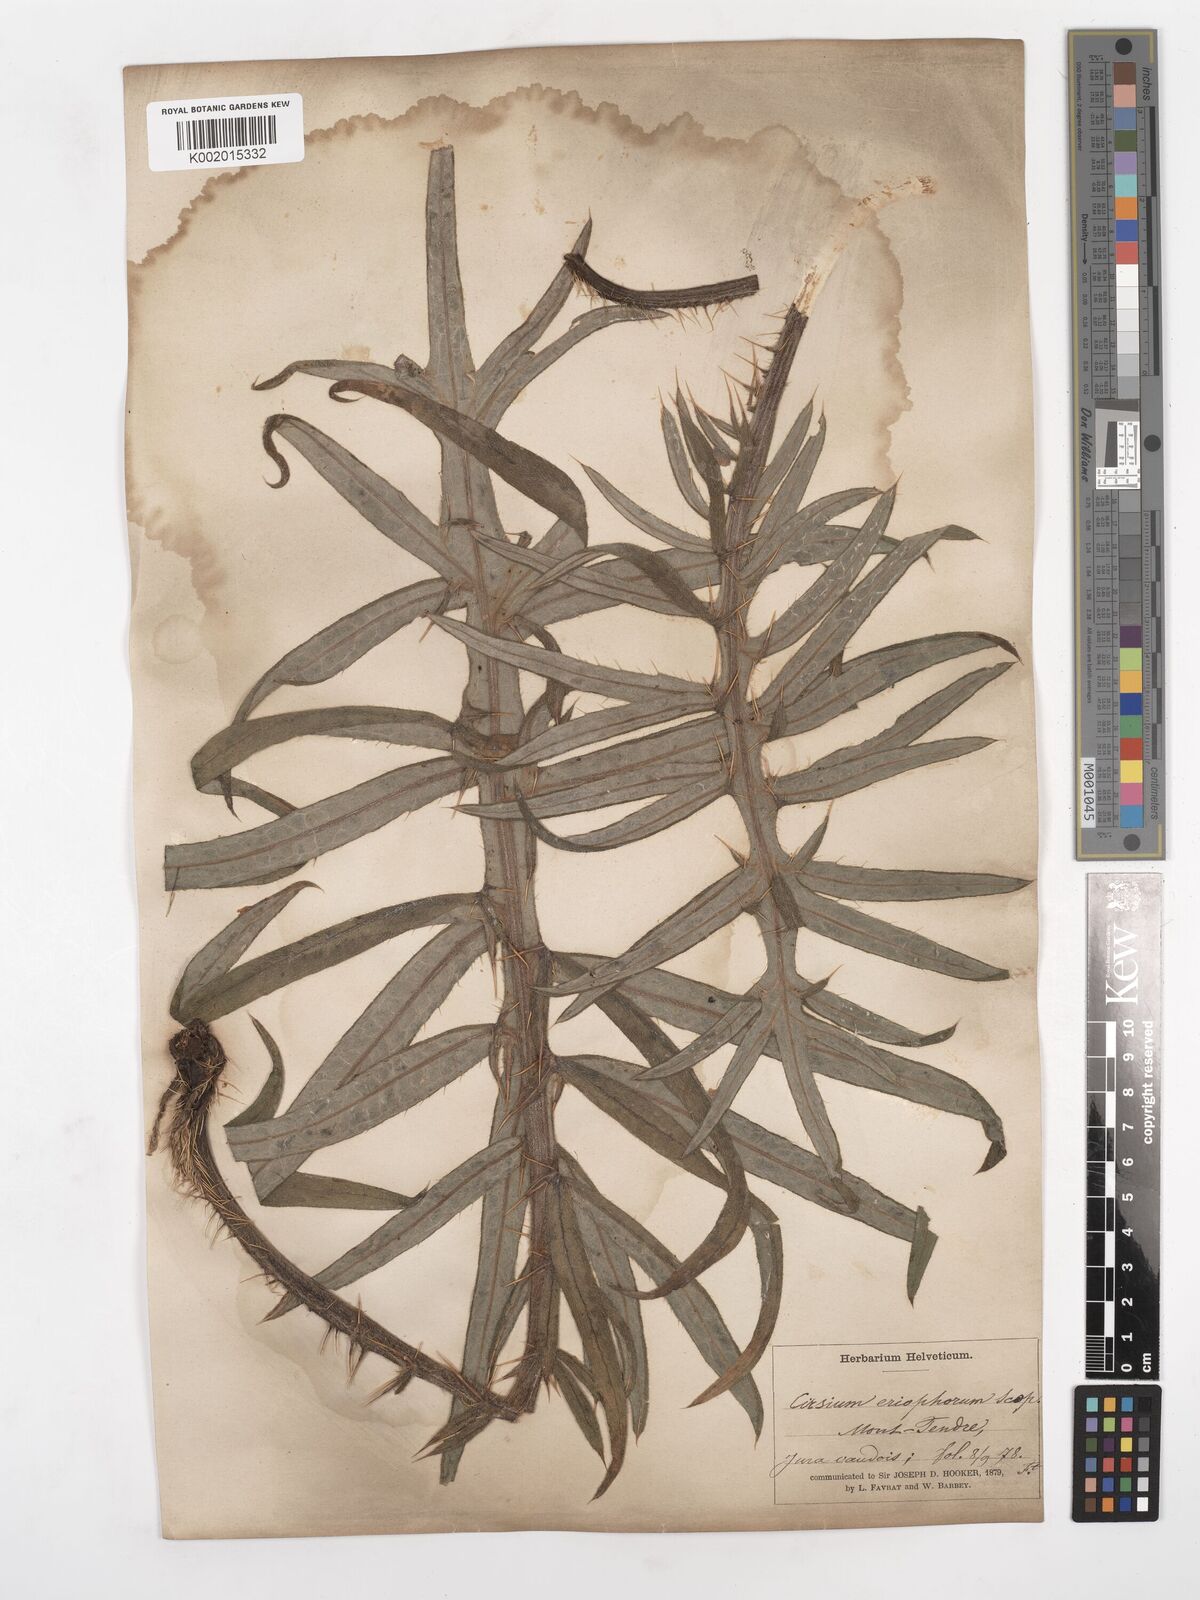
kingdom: Plantae
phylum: Tracheophyta
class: Magnoliopsida
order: Asterales
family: Asteraceae
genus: Lophiolepis
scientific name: Lophiolepis eriophora
